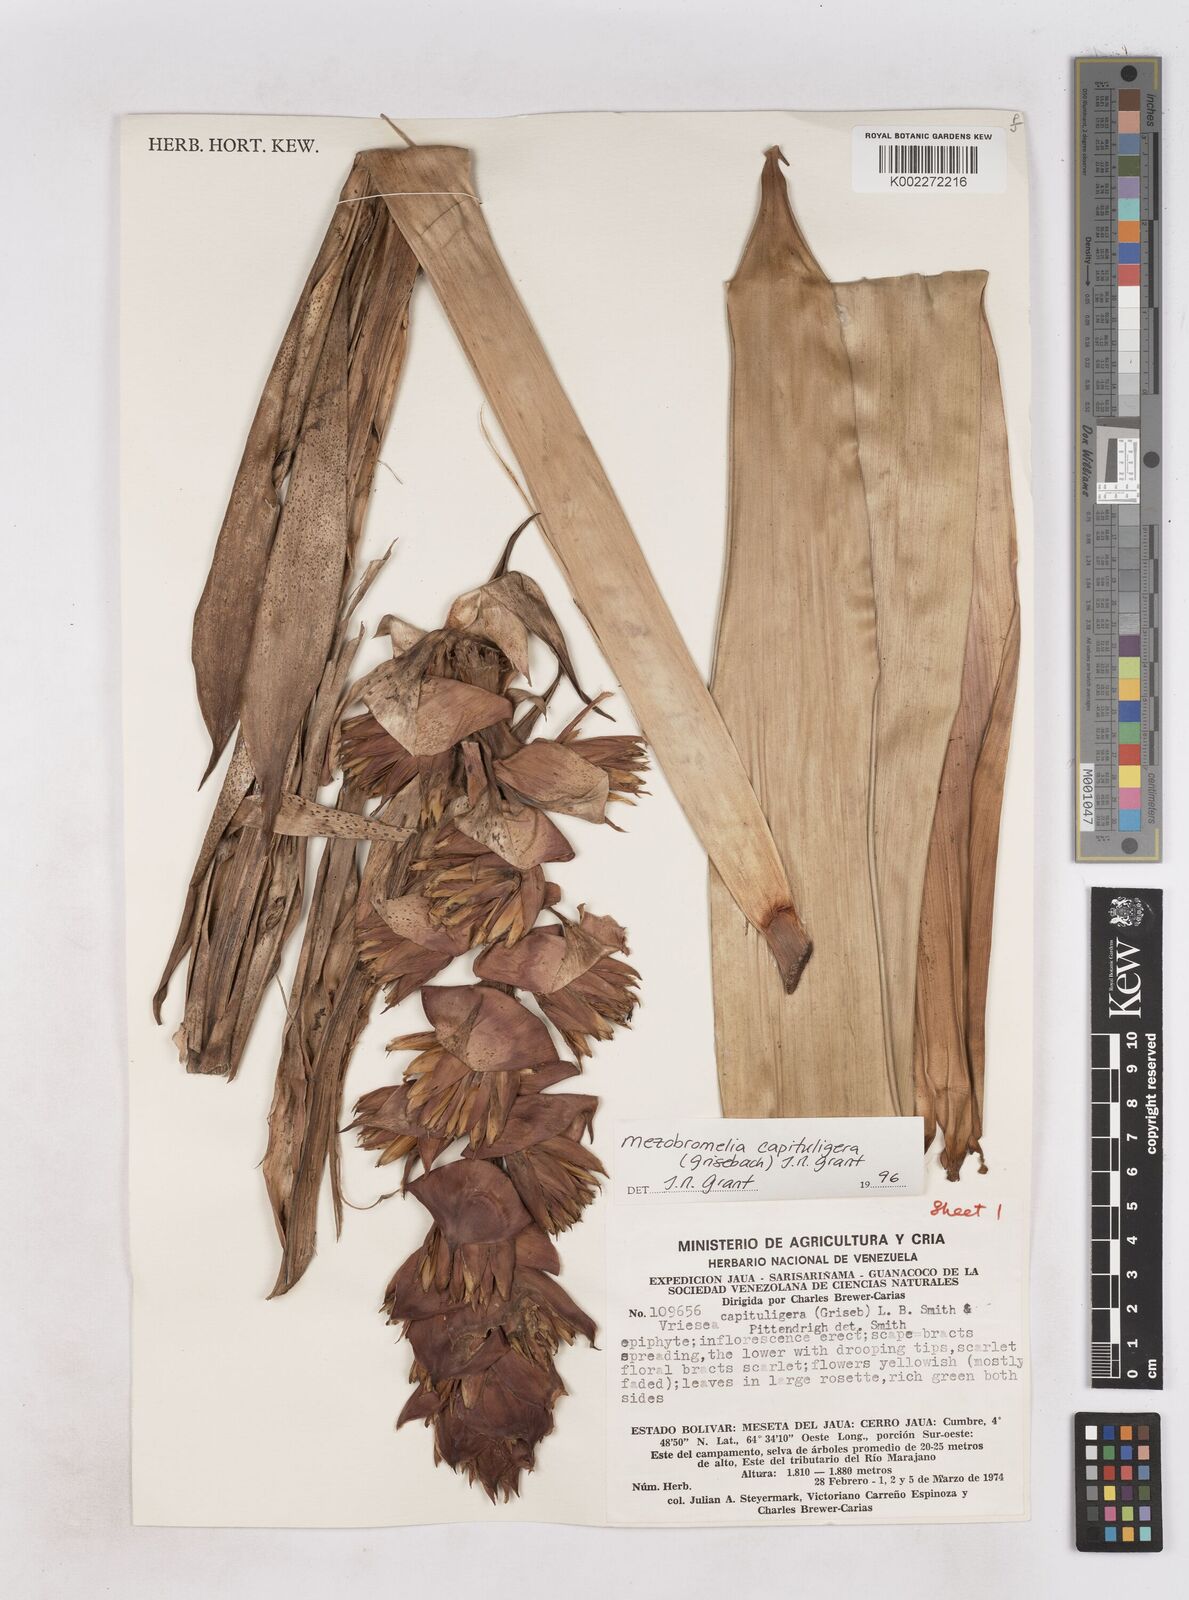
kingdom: Plantae
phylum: Tracheophyta
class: Liliopsida
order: Poales
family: Bromeliaceae
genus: Cipuropsis
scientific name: Cipuropsis capituligera
